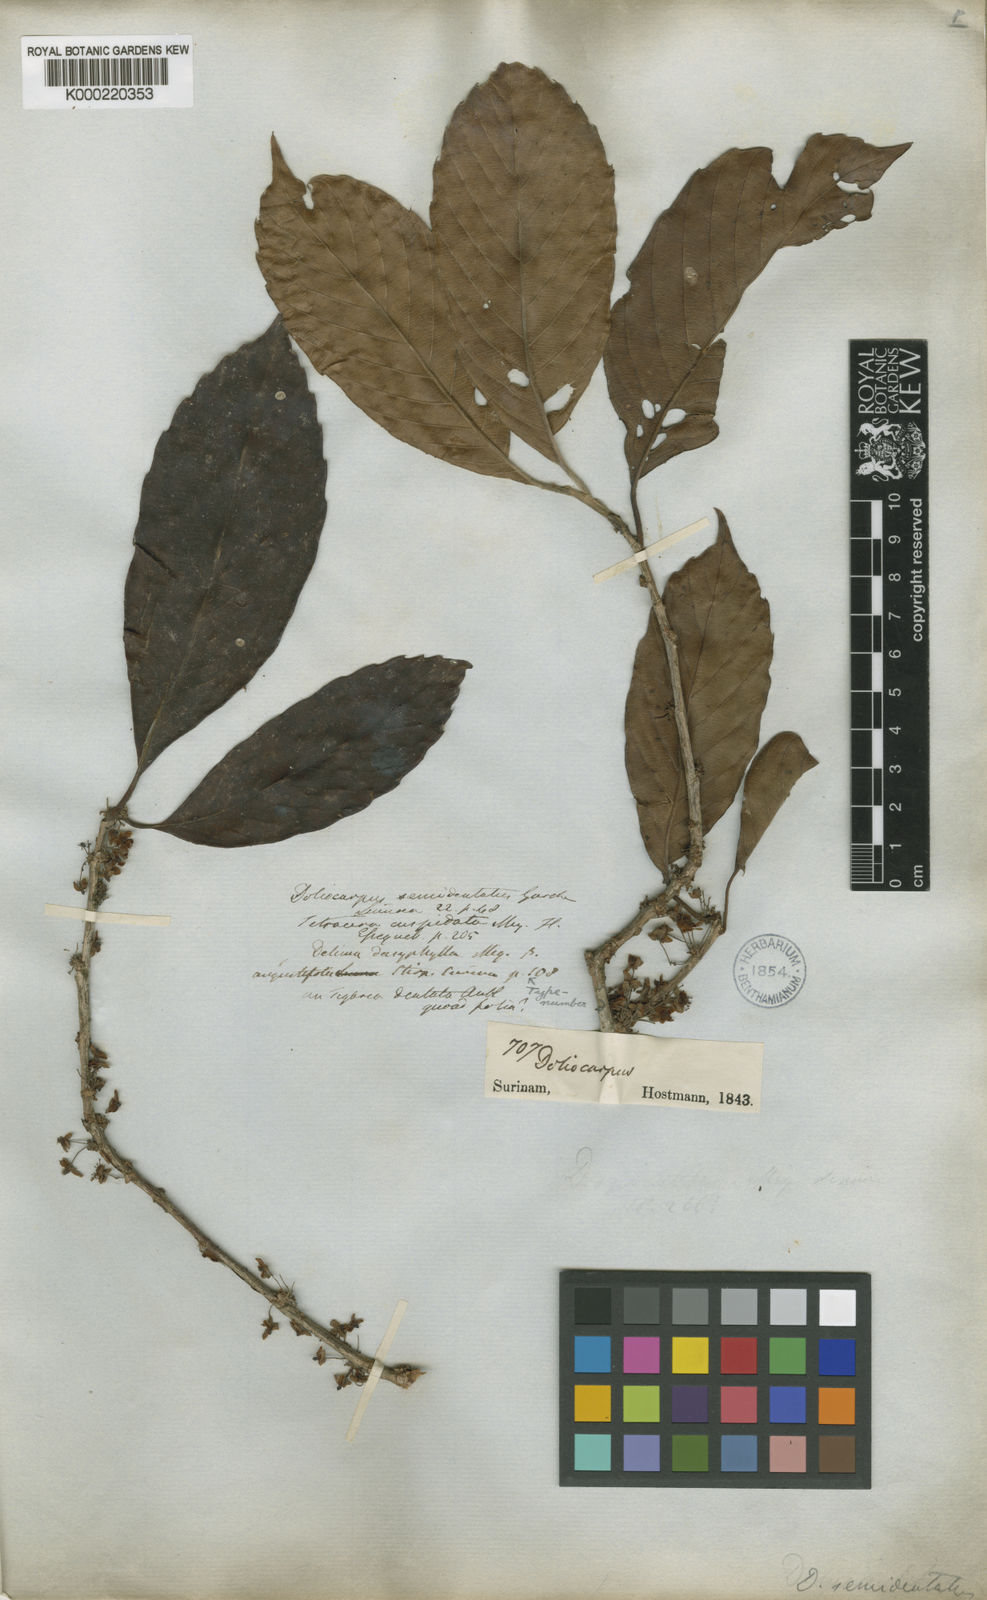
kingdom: Plantae
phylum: Tracheophyta
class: Magnoliopsida
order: Dilleniales
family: Dilleniaceae
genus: Doliocarpus
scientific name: Doliocarpus dentatus
